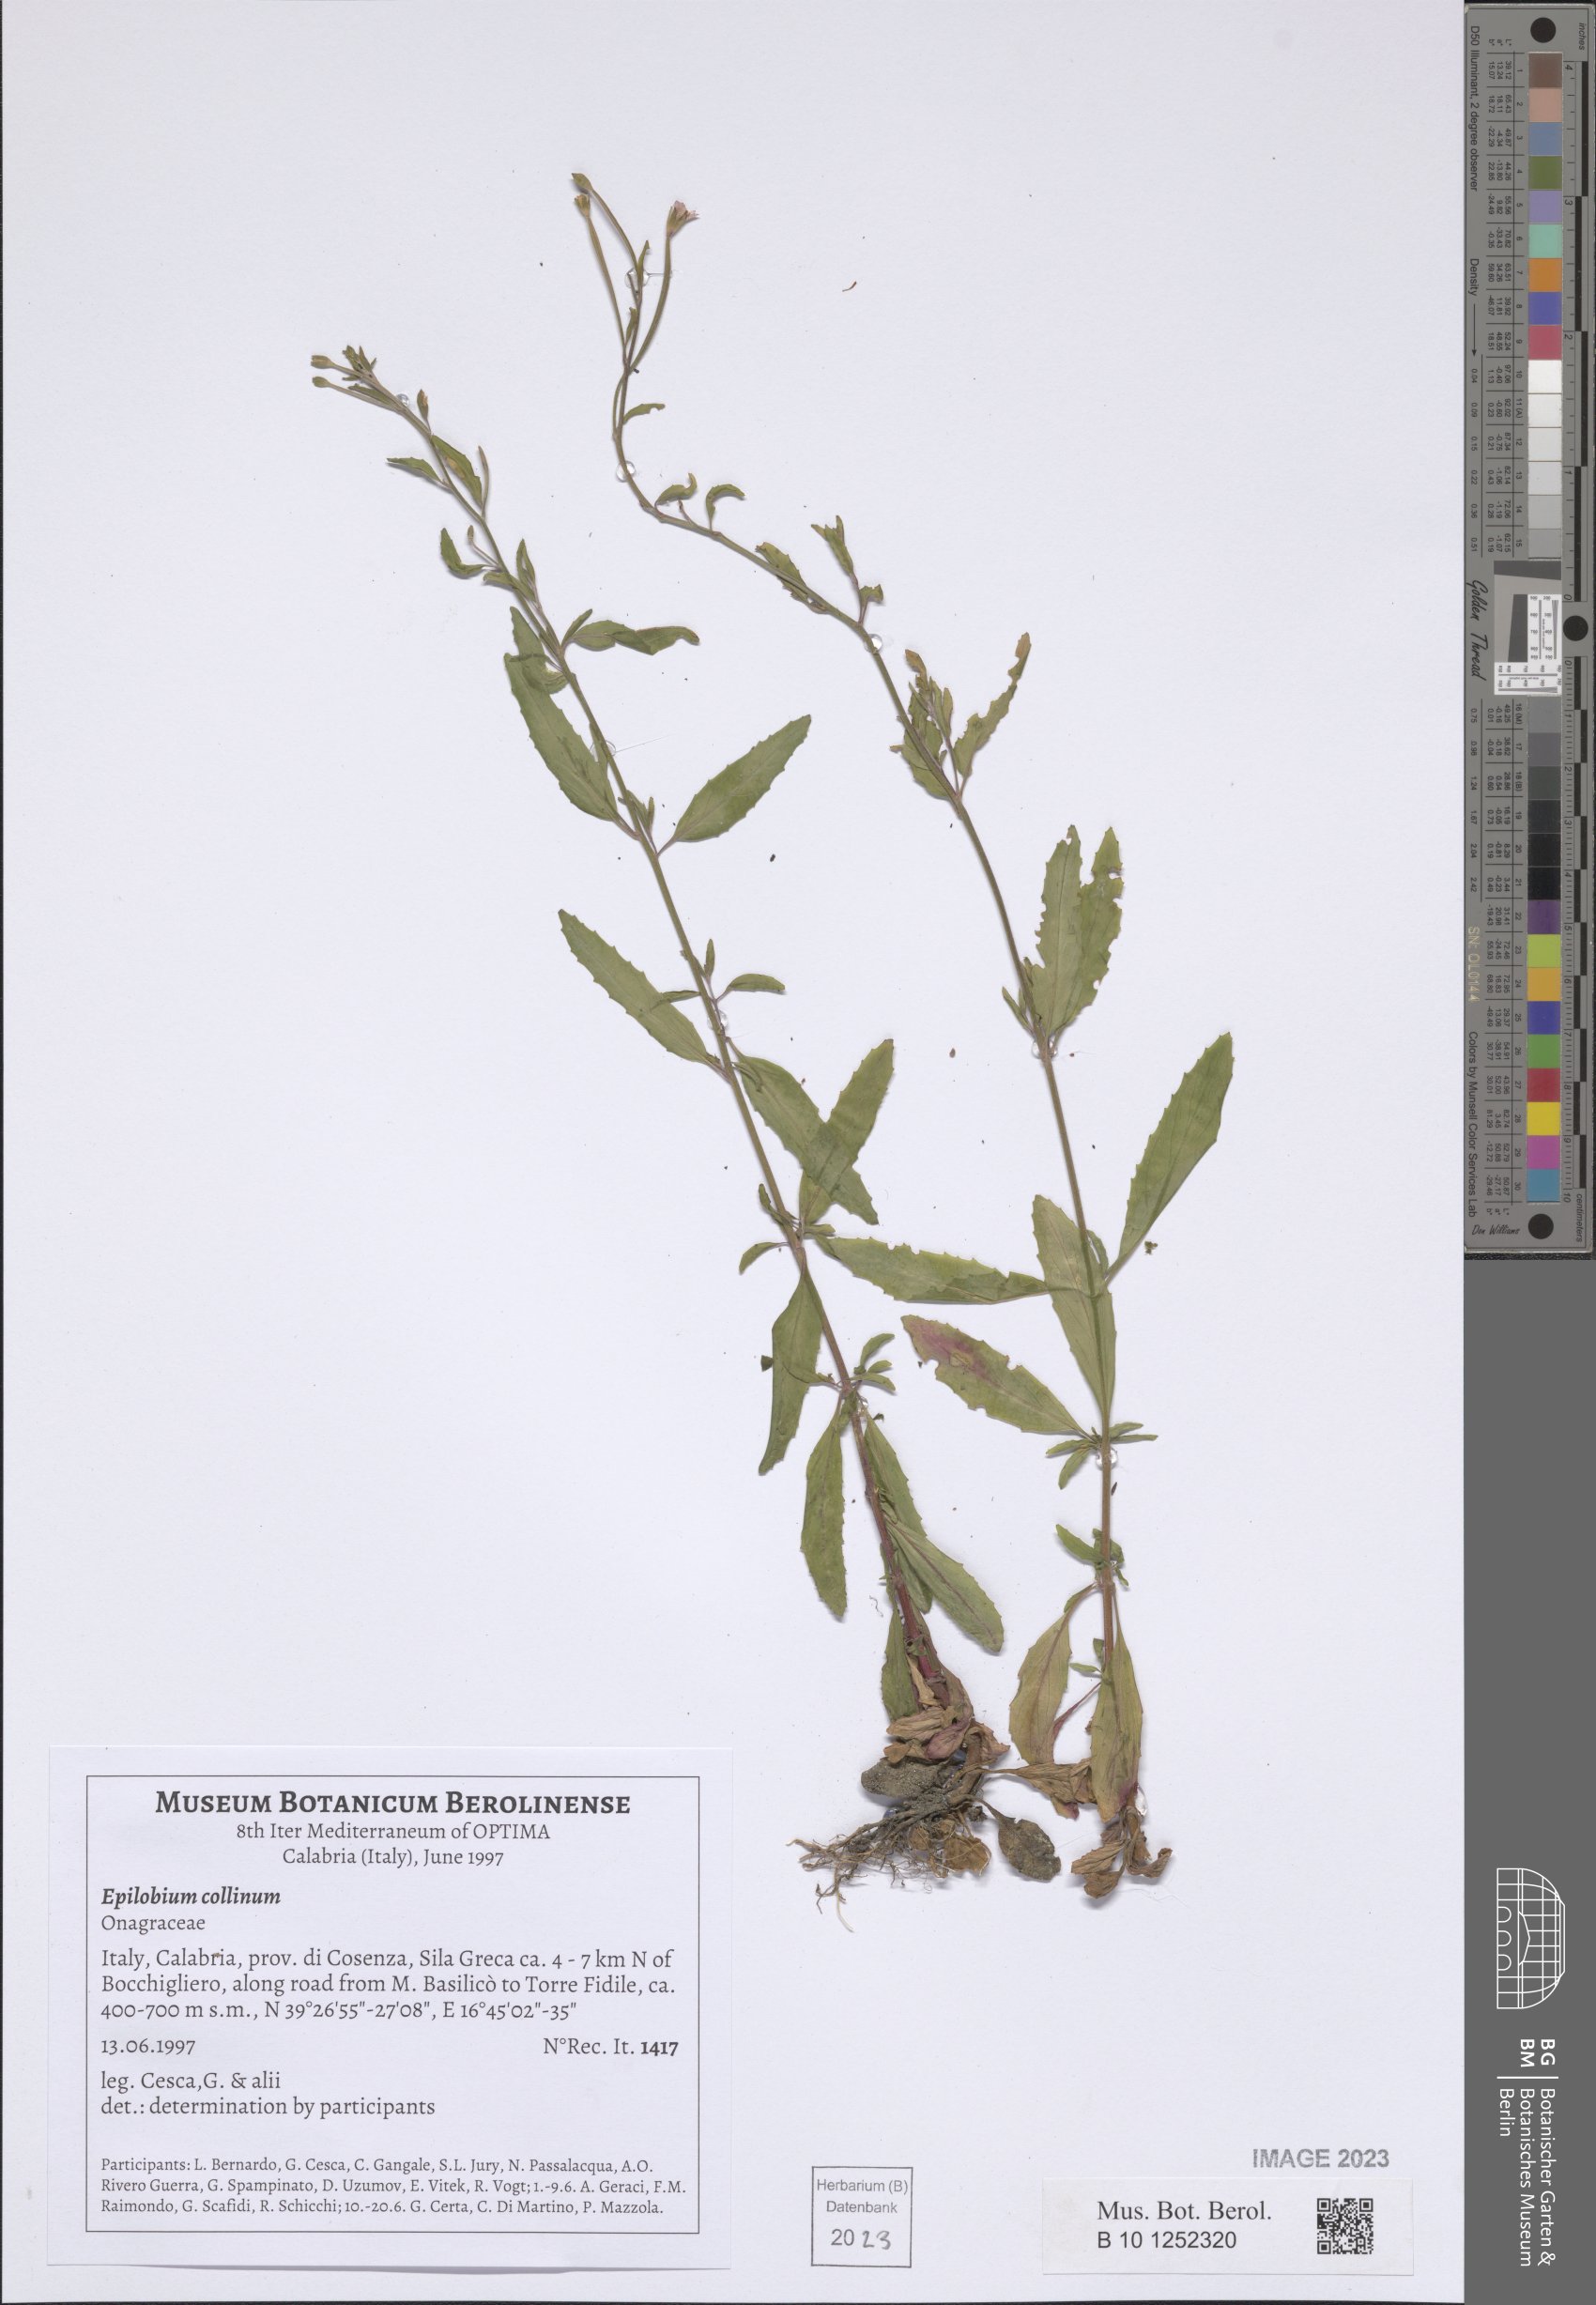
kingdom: Plantae
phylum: Tracheophyta
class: Magnoliopsida
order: Myrtales
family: Onagraceae
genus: Epilobium
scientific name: Epilobium collinum
